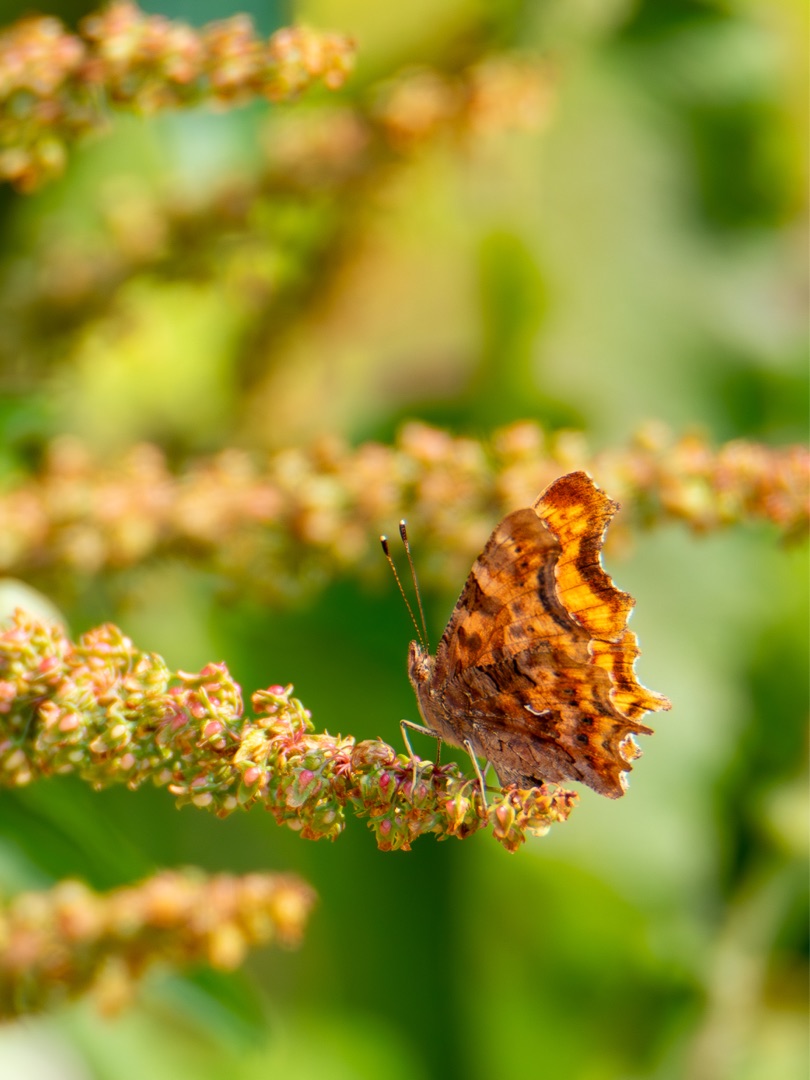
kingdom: Animalia
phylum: Arthropoda
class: Insecta
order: Lepidoptera
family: Nymphalidae
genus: Polygonia
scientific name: Polygonia c-album
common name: Det hvide C
